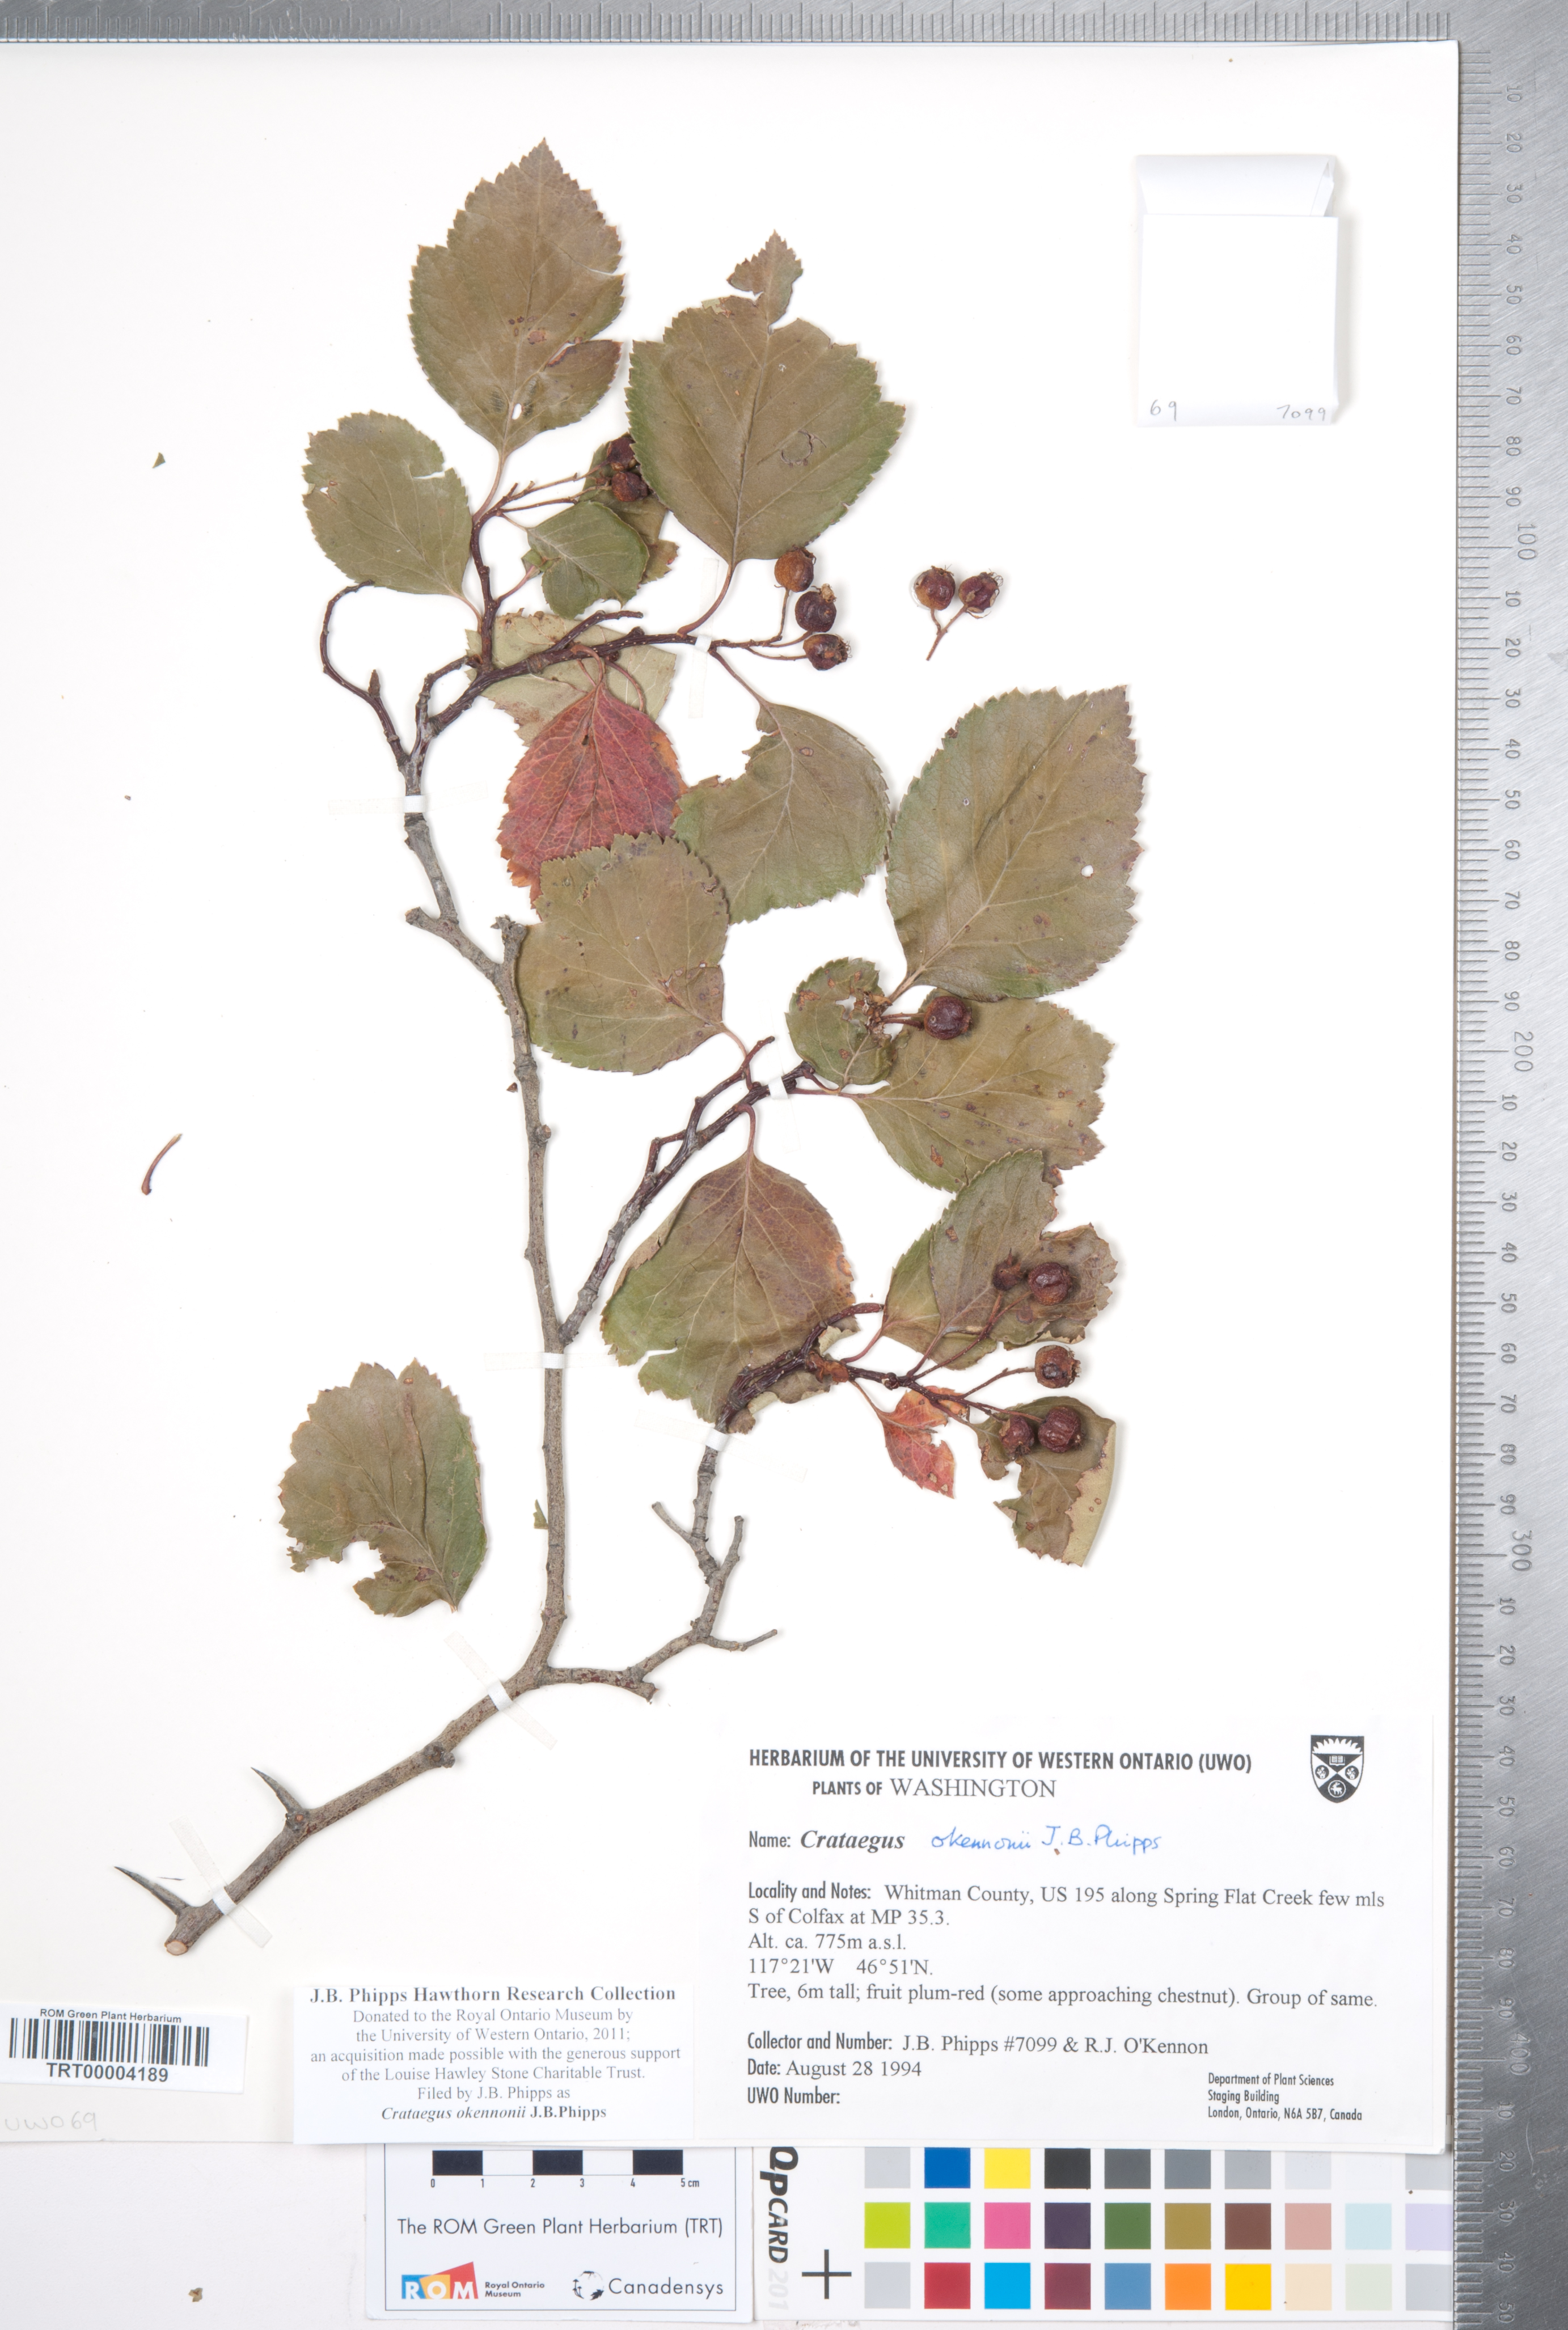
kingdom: Plantae
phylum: Tracheophyta
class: Magnoliopsida
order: Rosales
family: Rosaceae
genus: Crataegus
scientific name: Crataegus okennonii
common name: O'kennon's hawthorn
